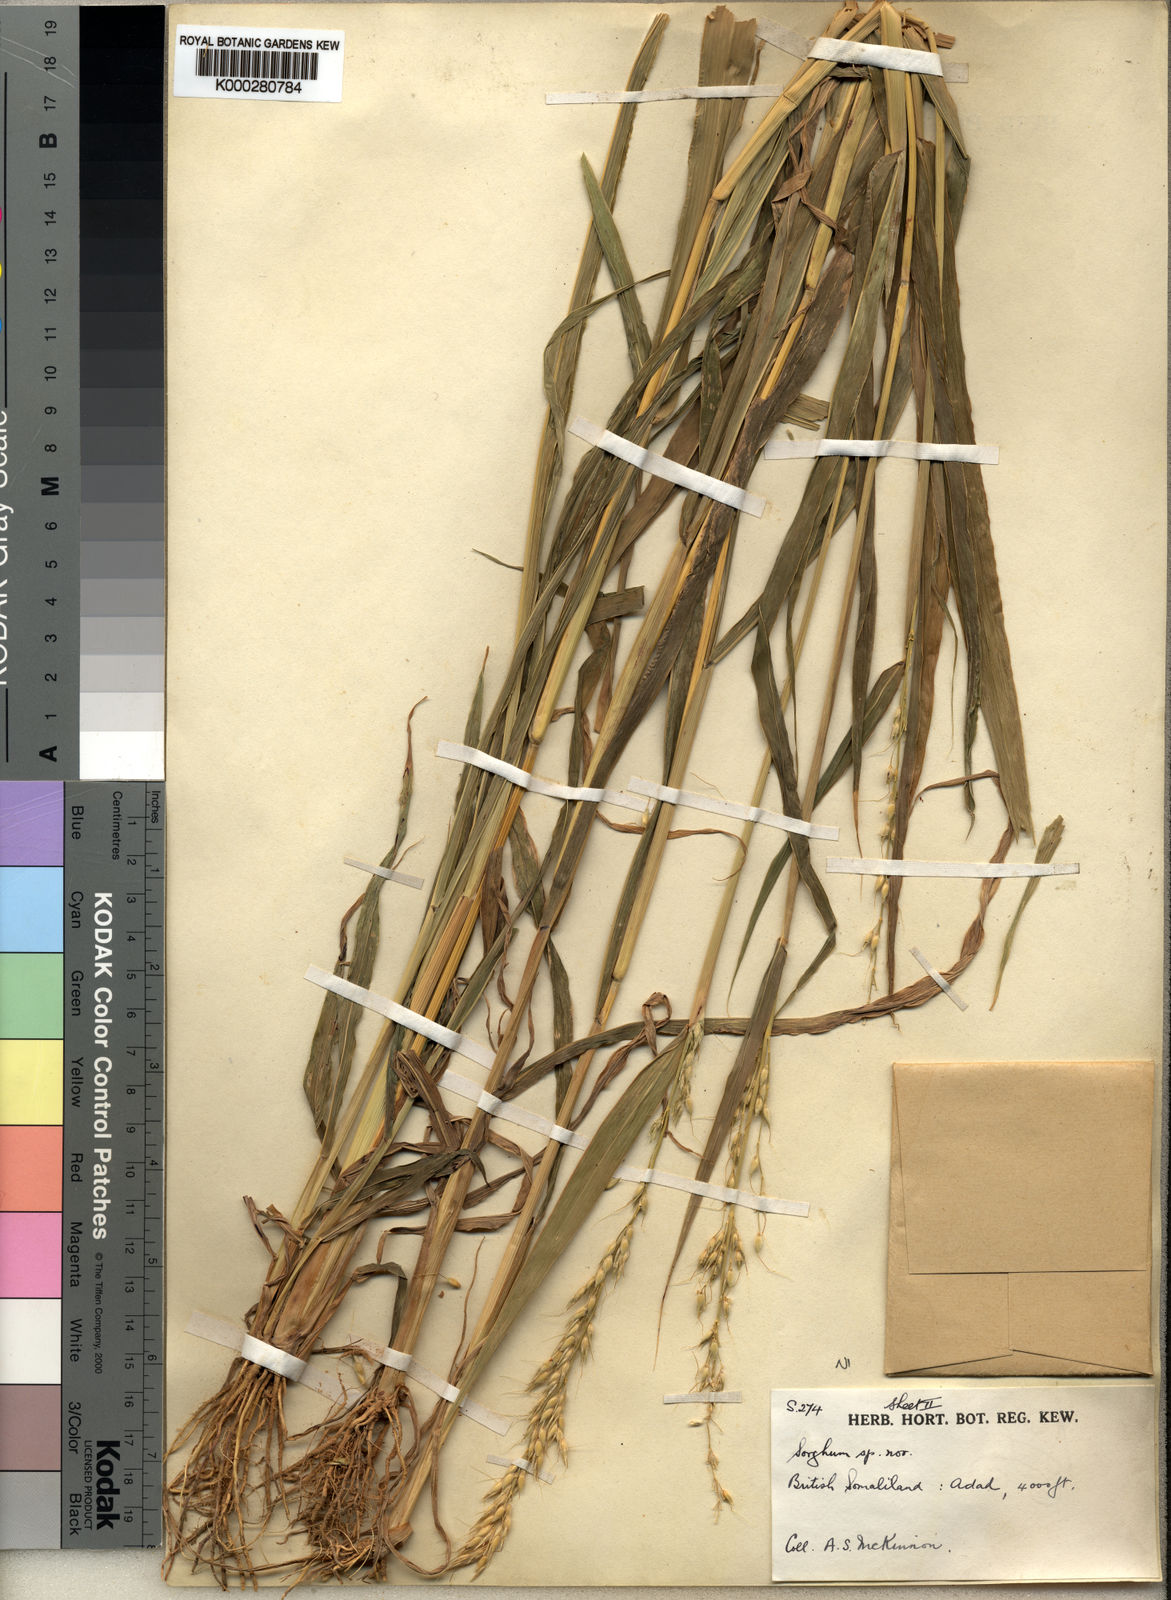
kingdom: Plantae
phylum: Tracheophyta
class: Liliopsida
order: Poales
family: Poaceae
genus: Sorghum
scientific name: Sorghum arundinaceum
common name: Sorghum
